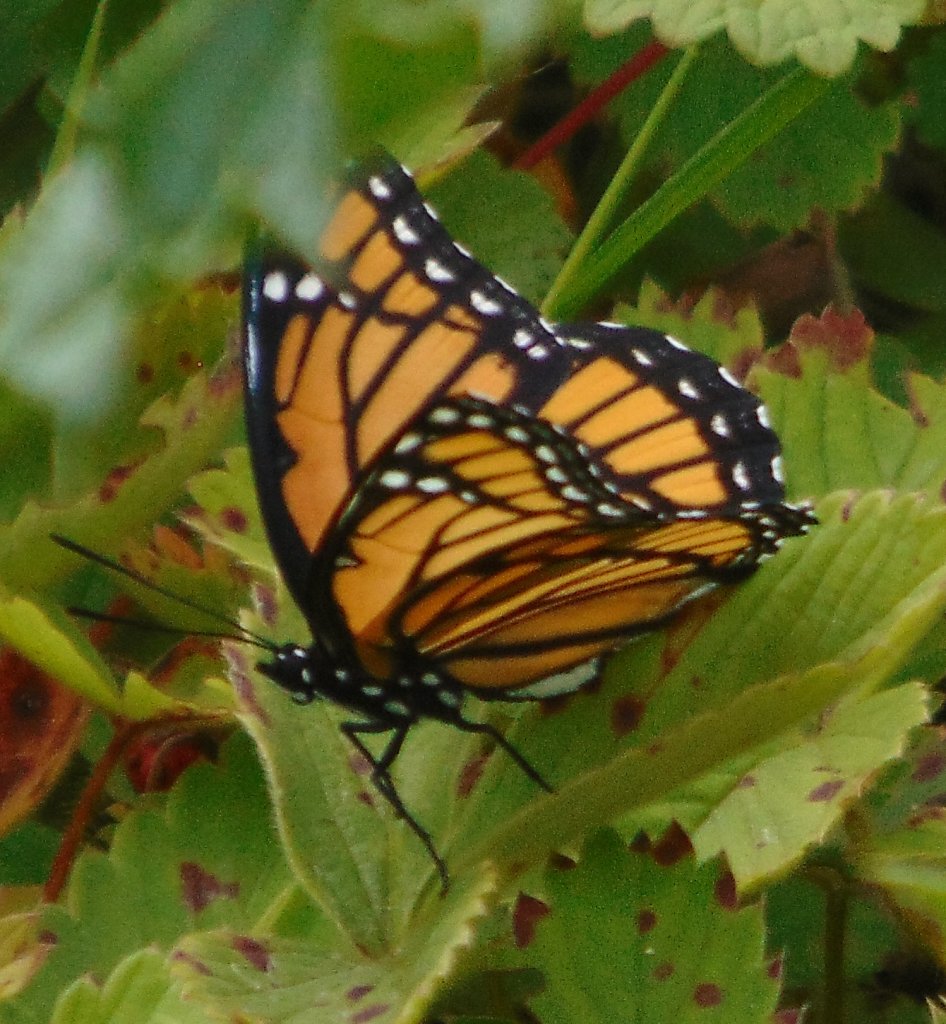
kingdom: Animalia
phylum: Arthropoda
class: Insecta
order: Lepidoptera
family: Nymphalidae
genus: Limenitis
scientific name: Limenitis archippus
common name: Viceroy
